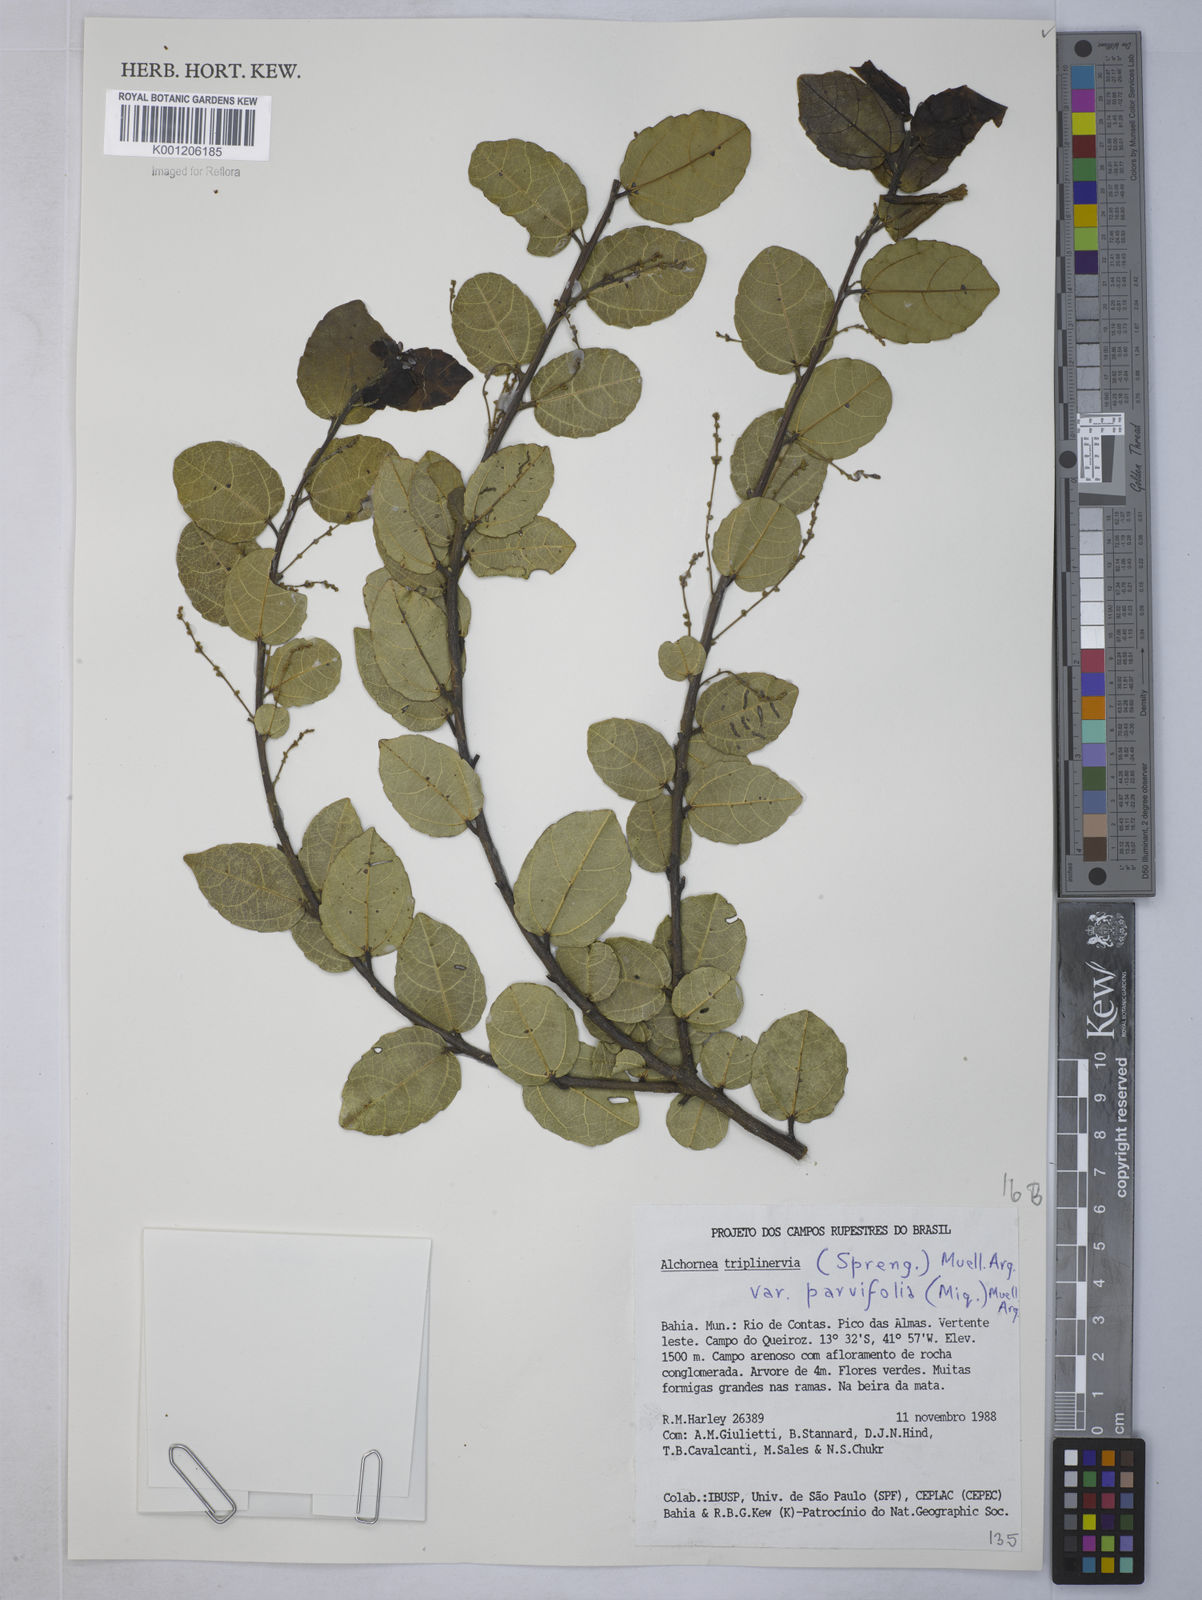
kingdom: Plantae
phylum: Tracheophyta
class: Magnoliopsida
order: Malpighiales
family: Euphorbiaceae
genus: Alchornea
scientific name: Alchornea
